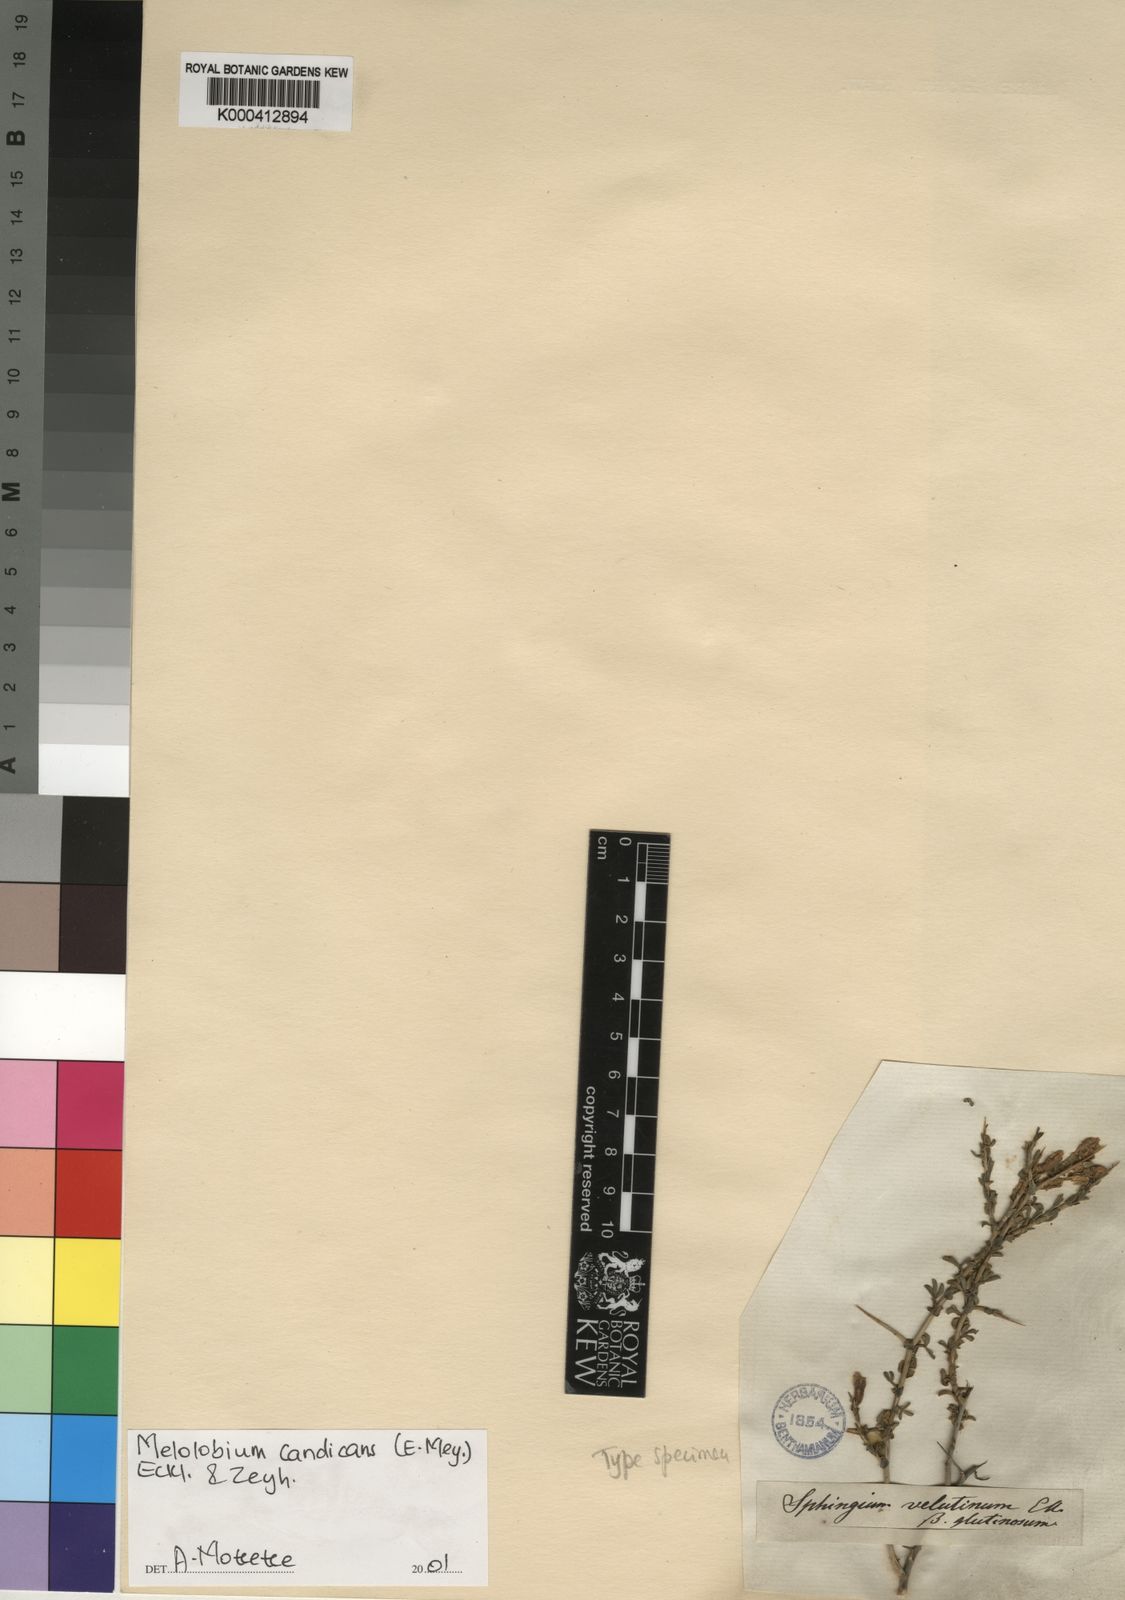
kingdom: Plantae
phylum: Tracheophyta
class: Magnoliopsida
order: Fabales
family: Fabaceae
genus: Melolobium
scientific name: Melolobium candicans
